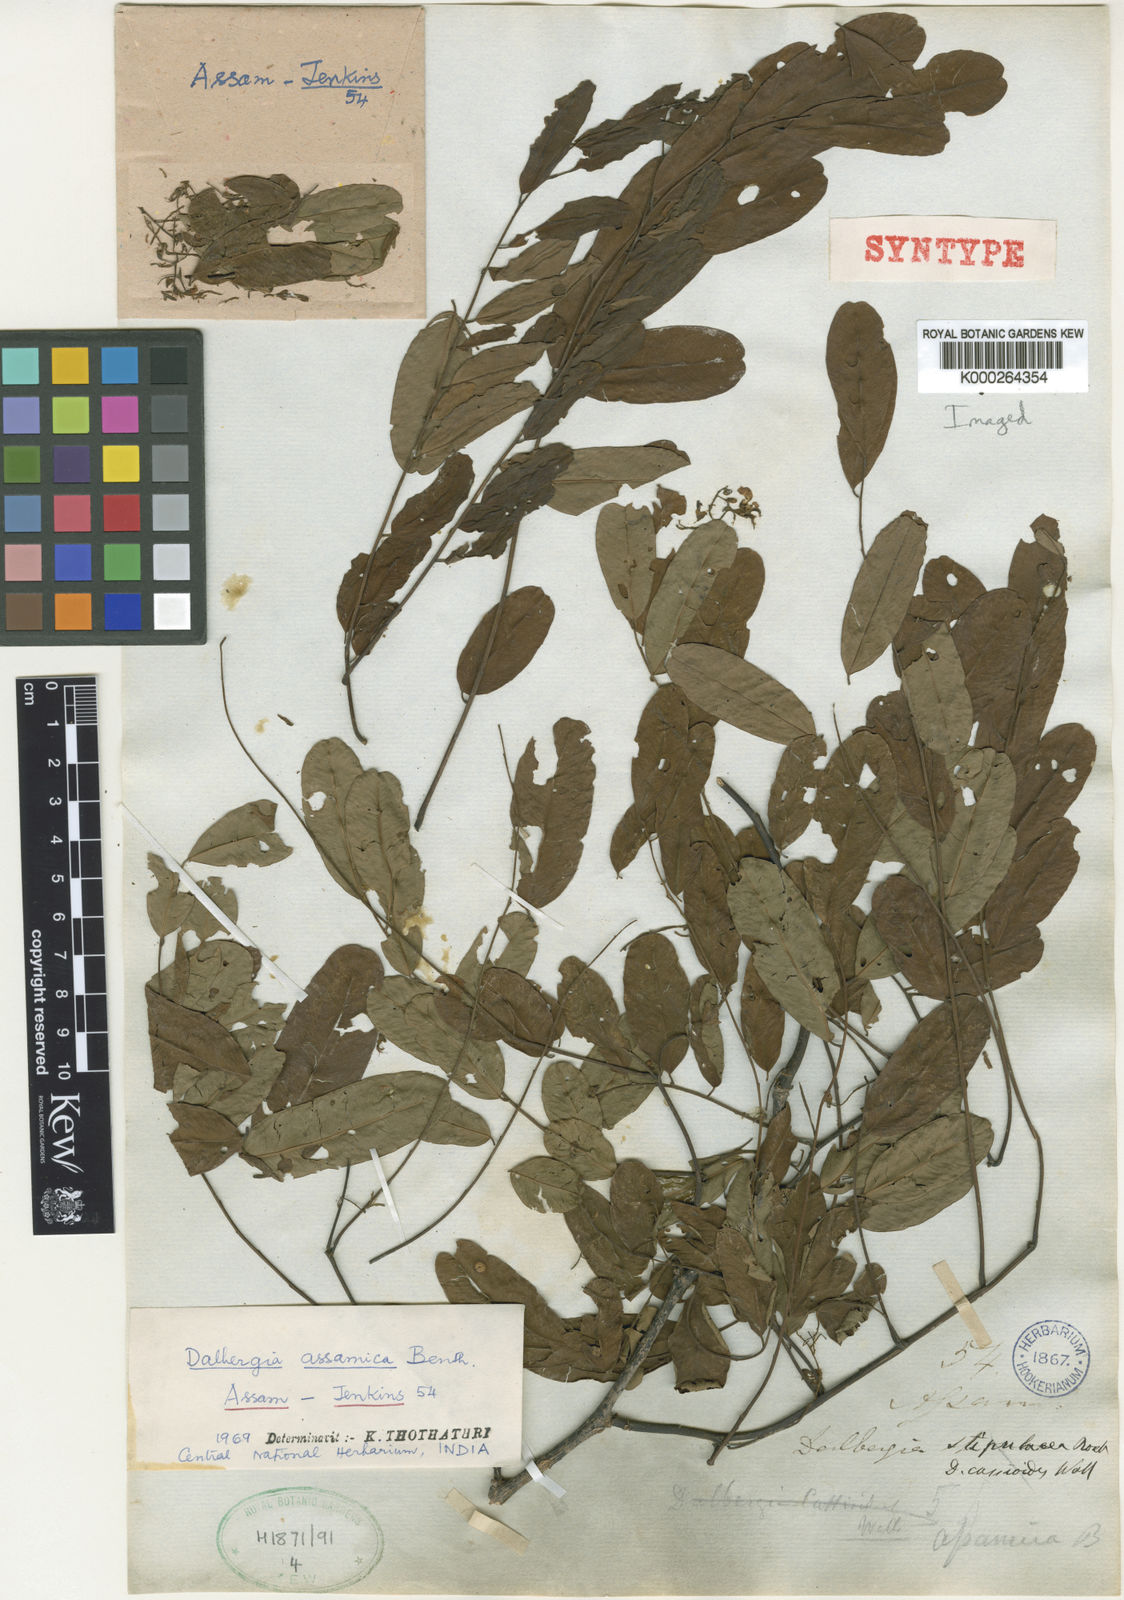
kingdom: Plantae
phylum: Tracheophyta
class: Magnoliopsida
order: Fabales
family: Fabaceae
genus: Dalbergia
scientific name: Dalbergia assamica
